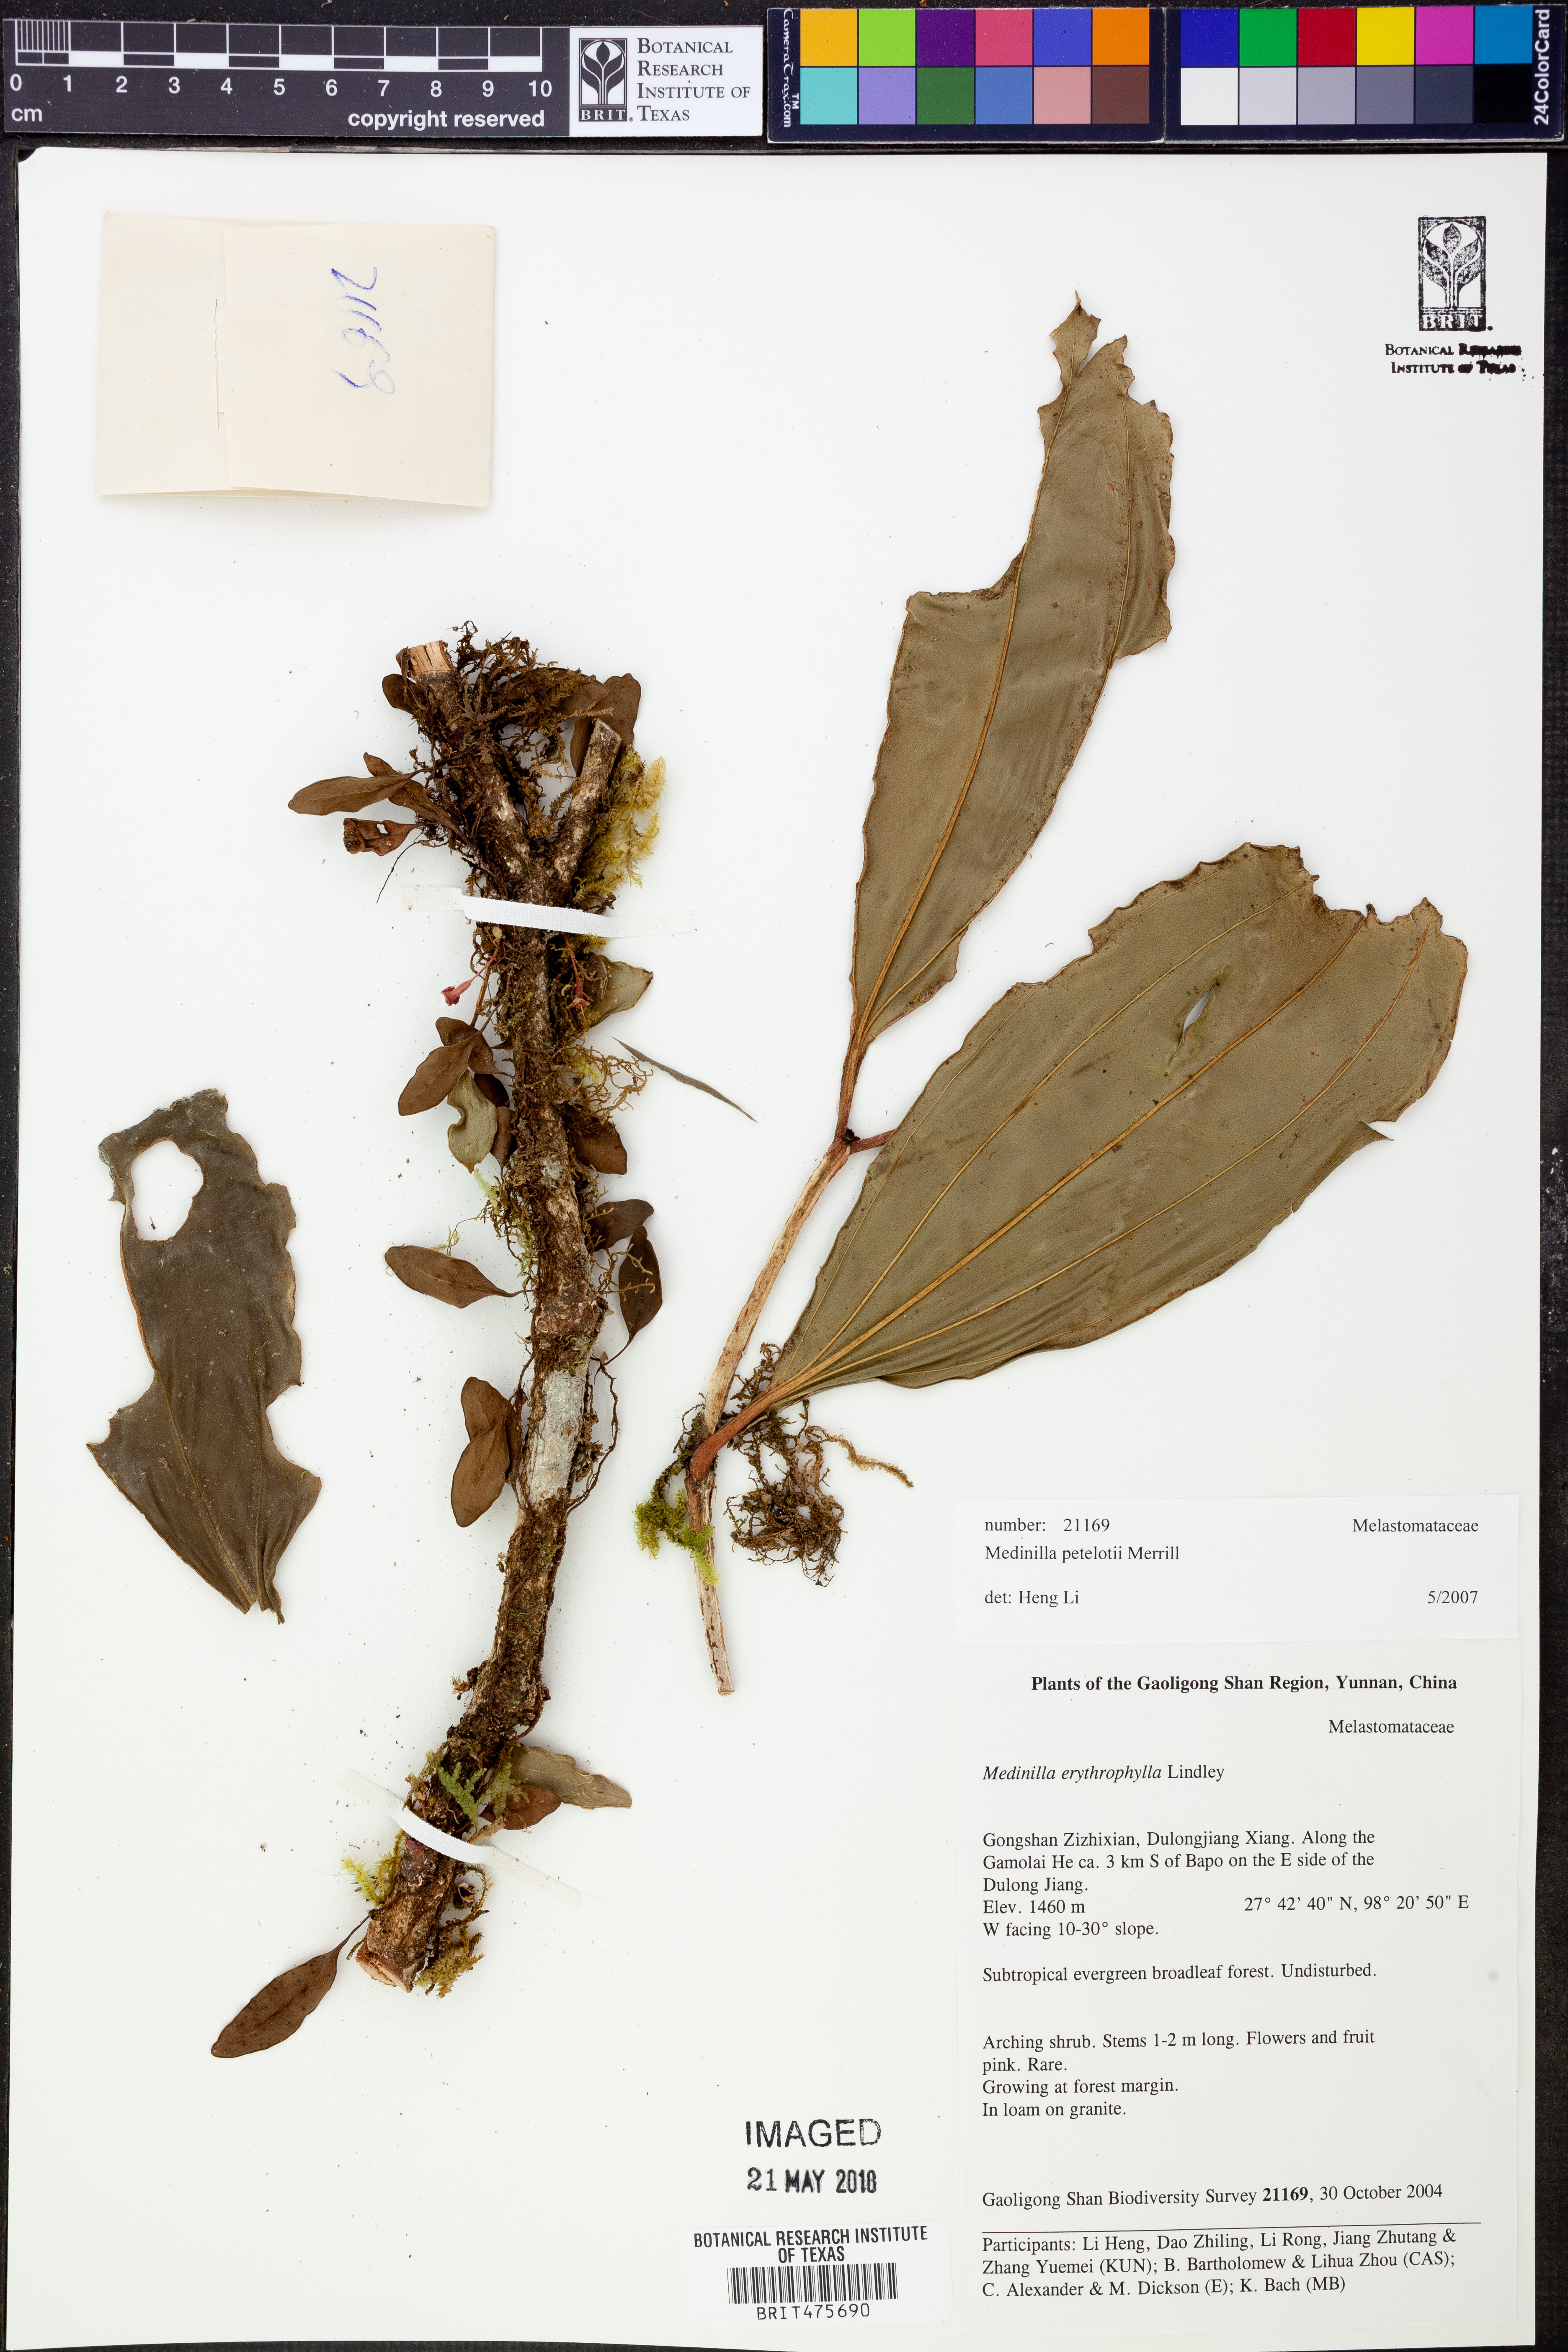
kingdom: Plantae
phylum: Tracheophyta
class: Magnoliopsida
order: Myrtales
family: Melastomataceae
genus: Medinilla
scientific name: Medinilla petelotii
